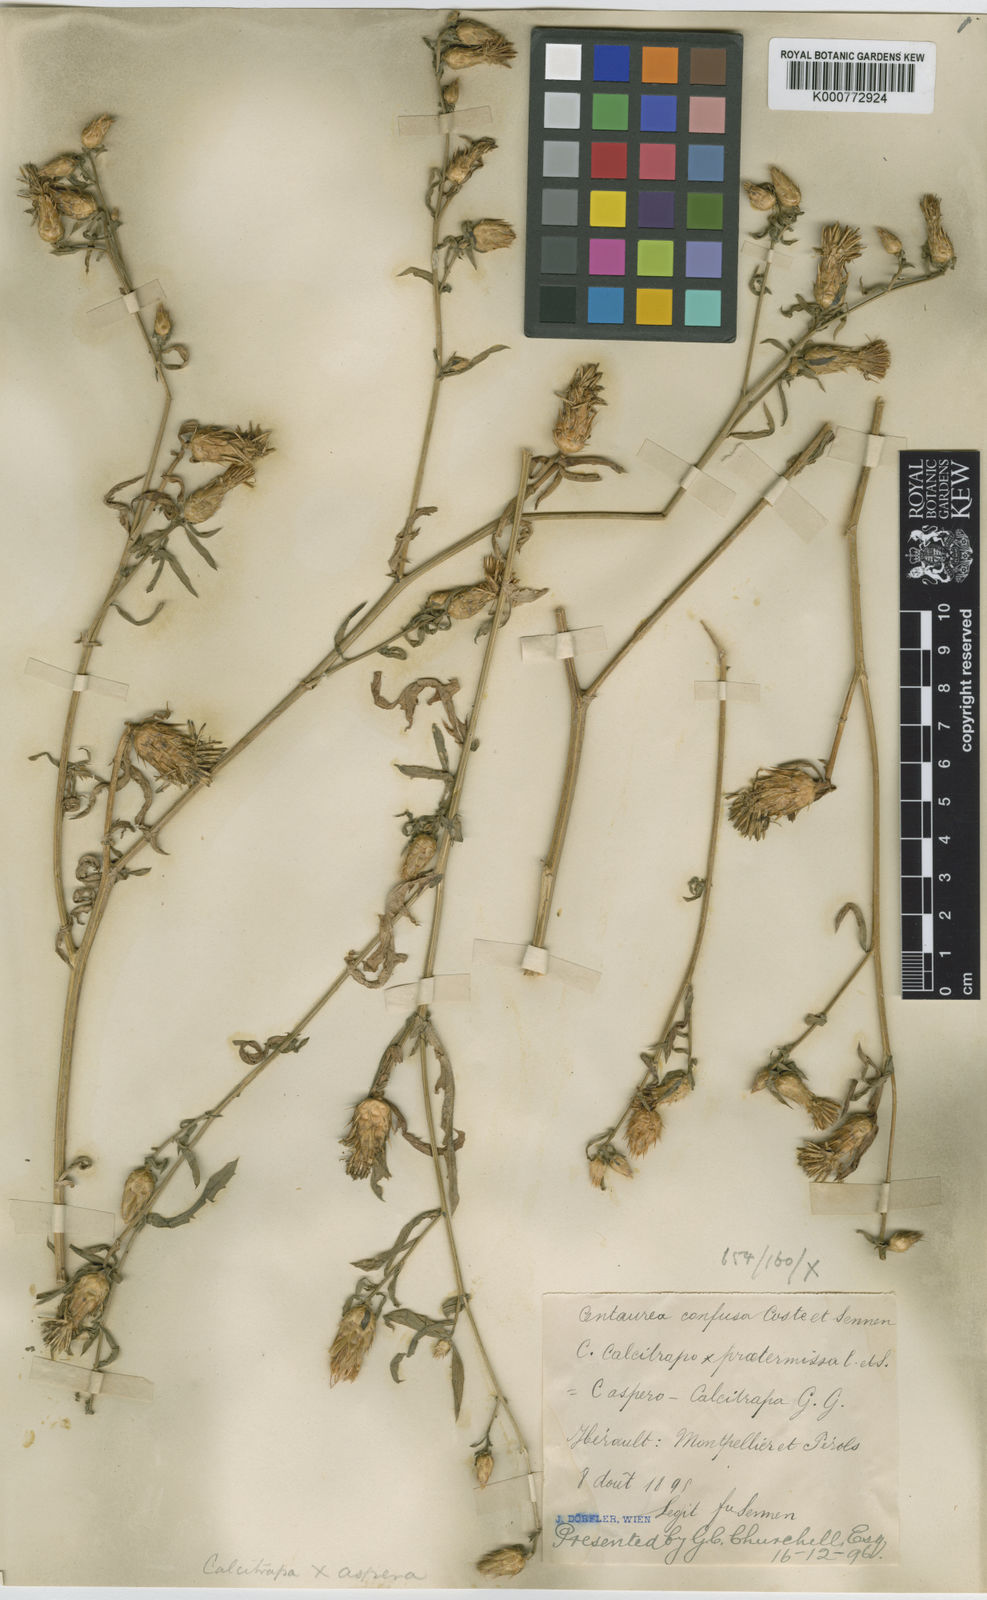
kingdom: Plantae
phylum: Tracheophyta
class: Magnoliopsida
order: Asterales
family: Asteraceae
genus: Centaurea
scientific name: Centaurea calcitrapa
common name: Red star-thistle
